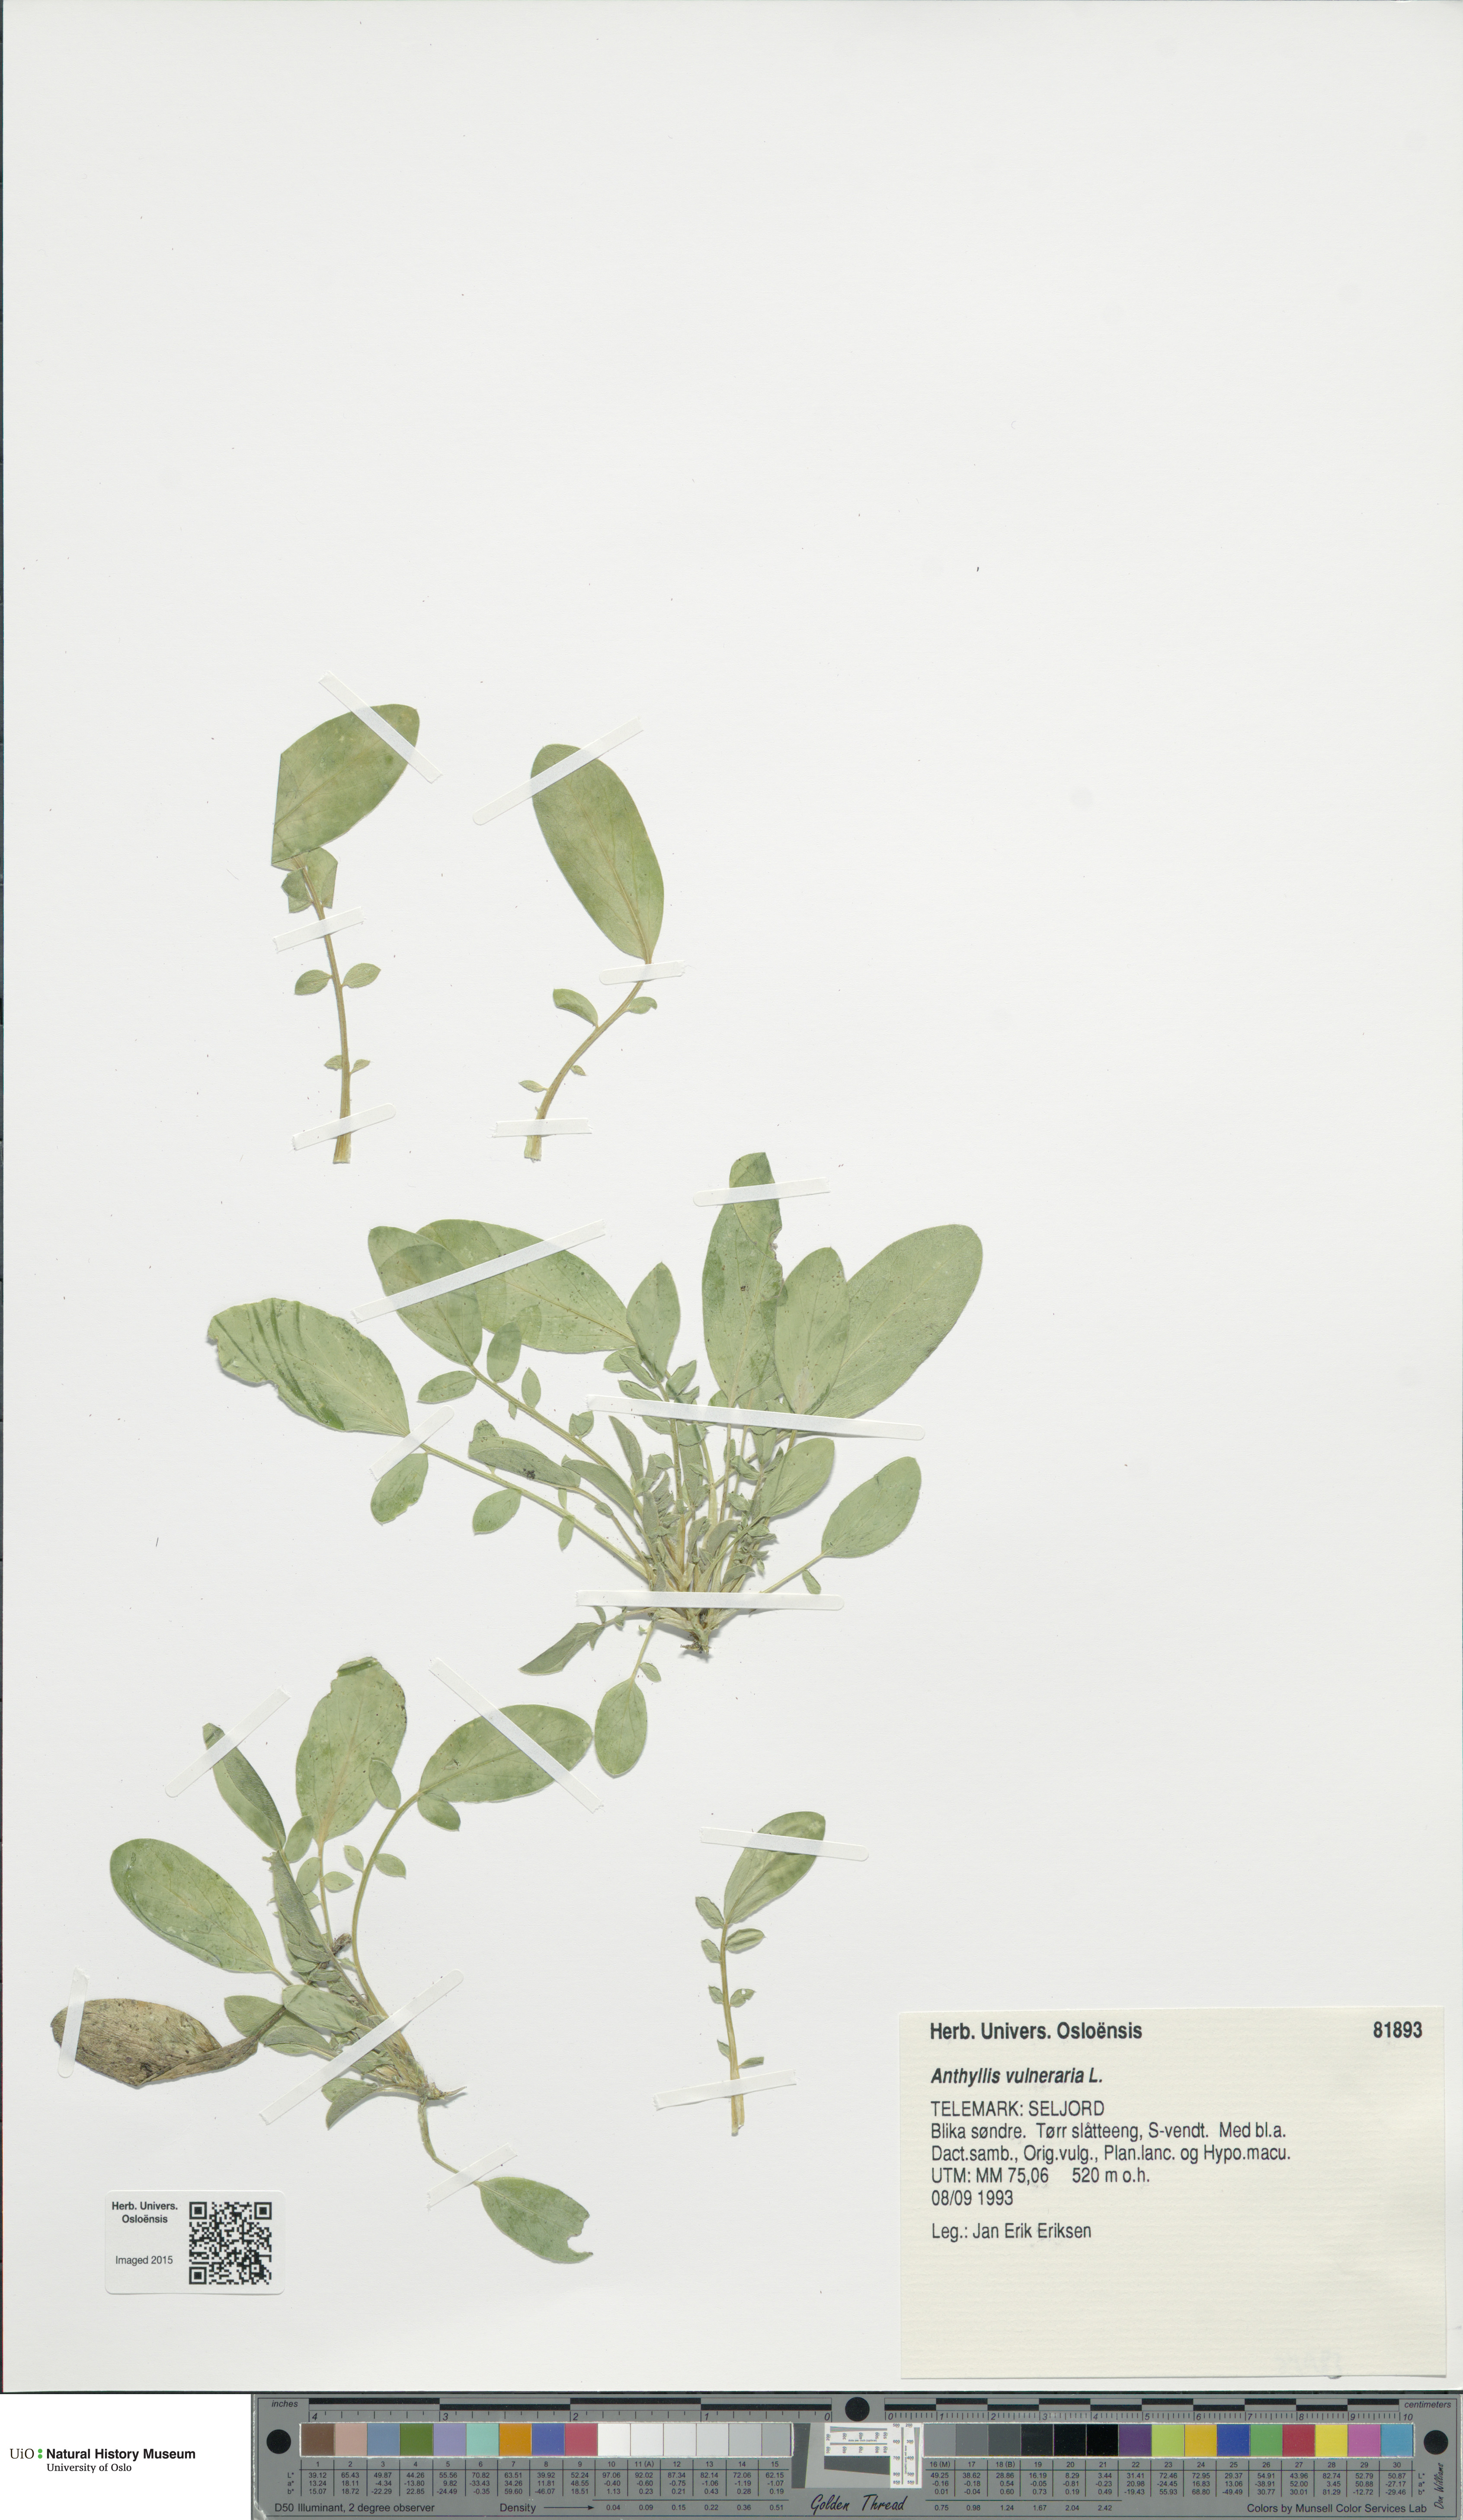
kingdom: Plantae
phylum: Tracheophyta
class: Magnoliopsida
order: Fabales
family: Fabaceae
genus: Anthyllis
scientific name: Anthyllis vulneraria
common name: Kidney vetch
